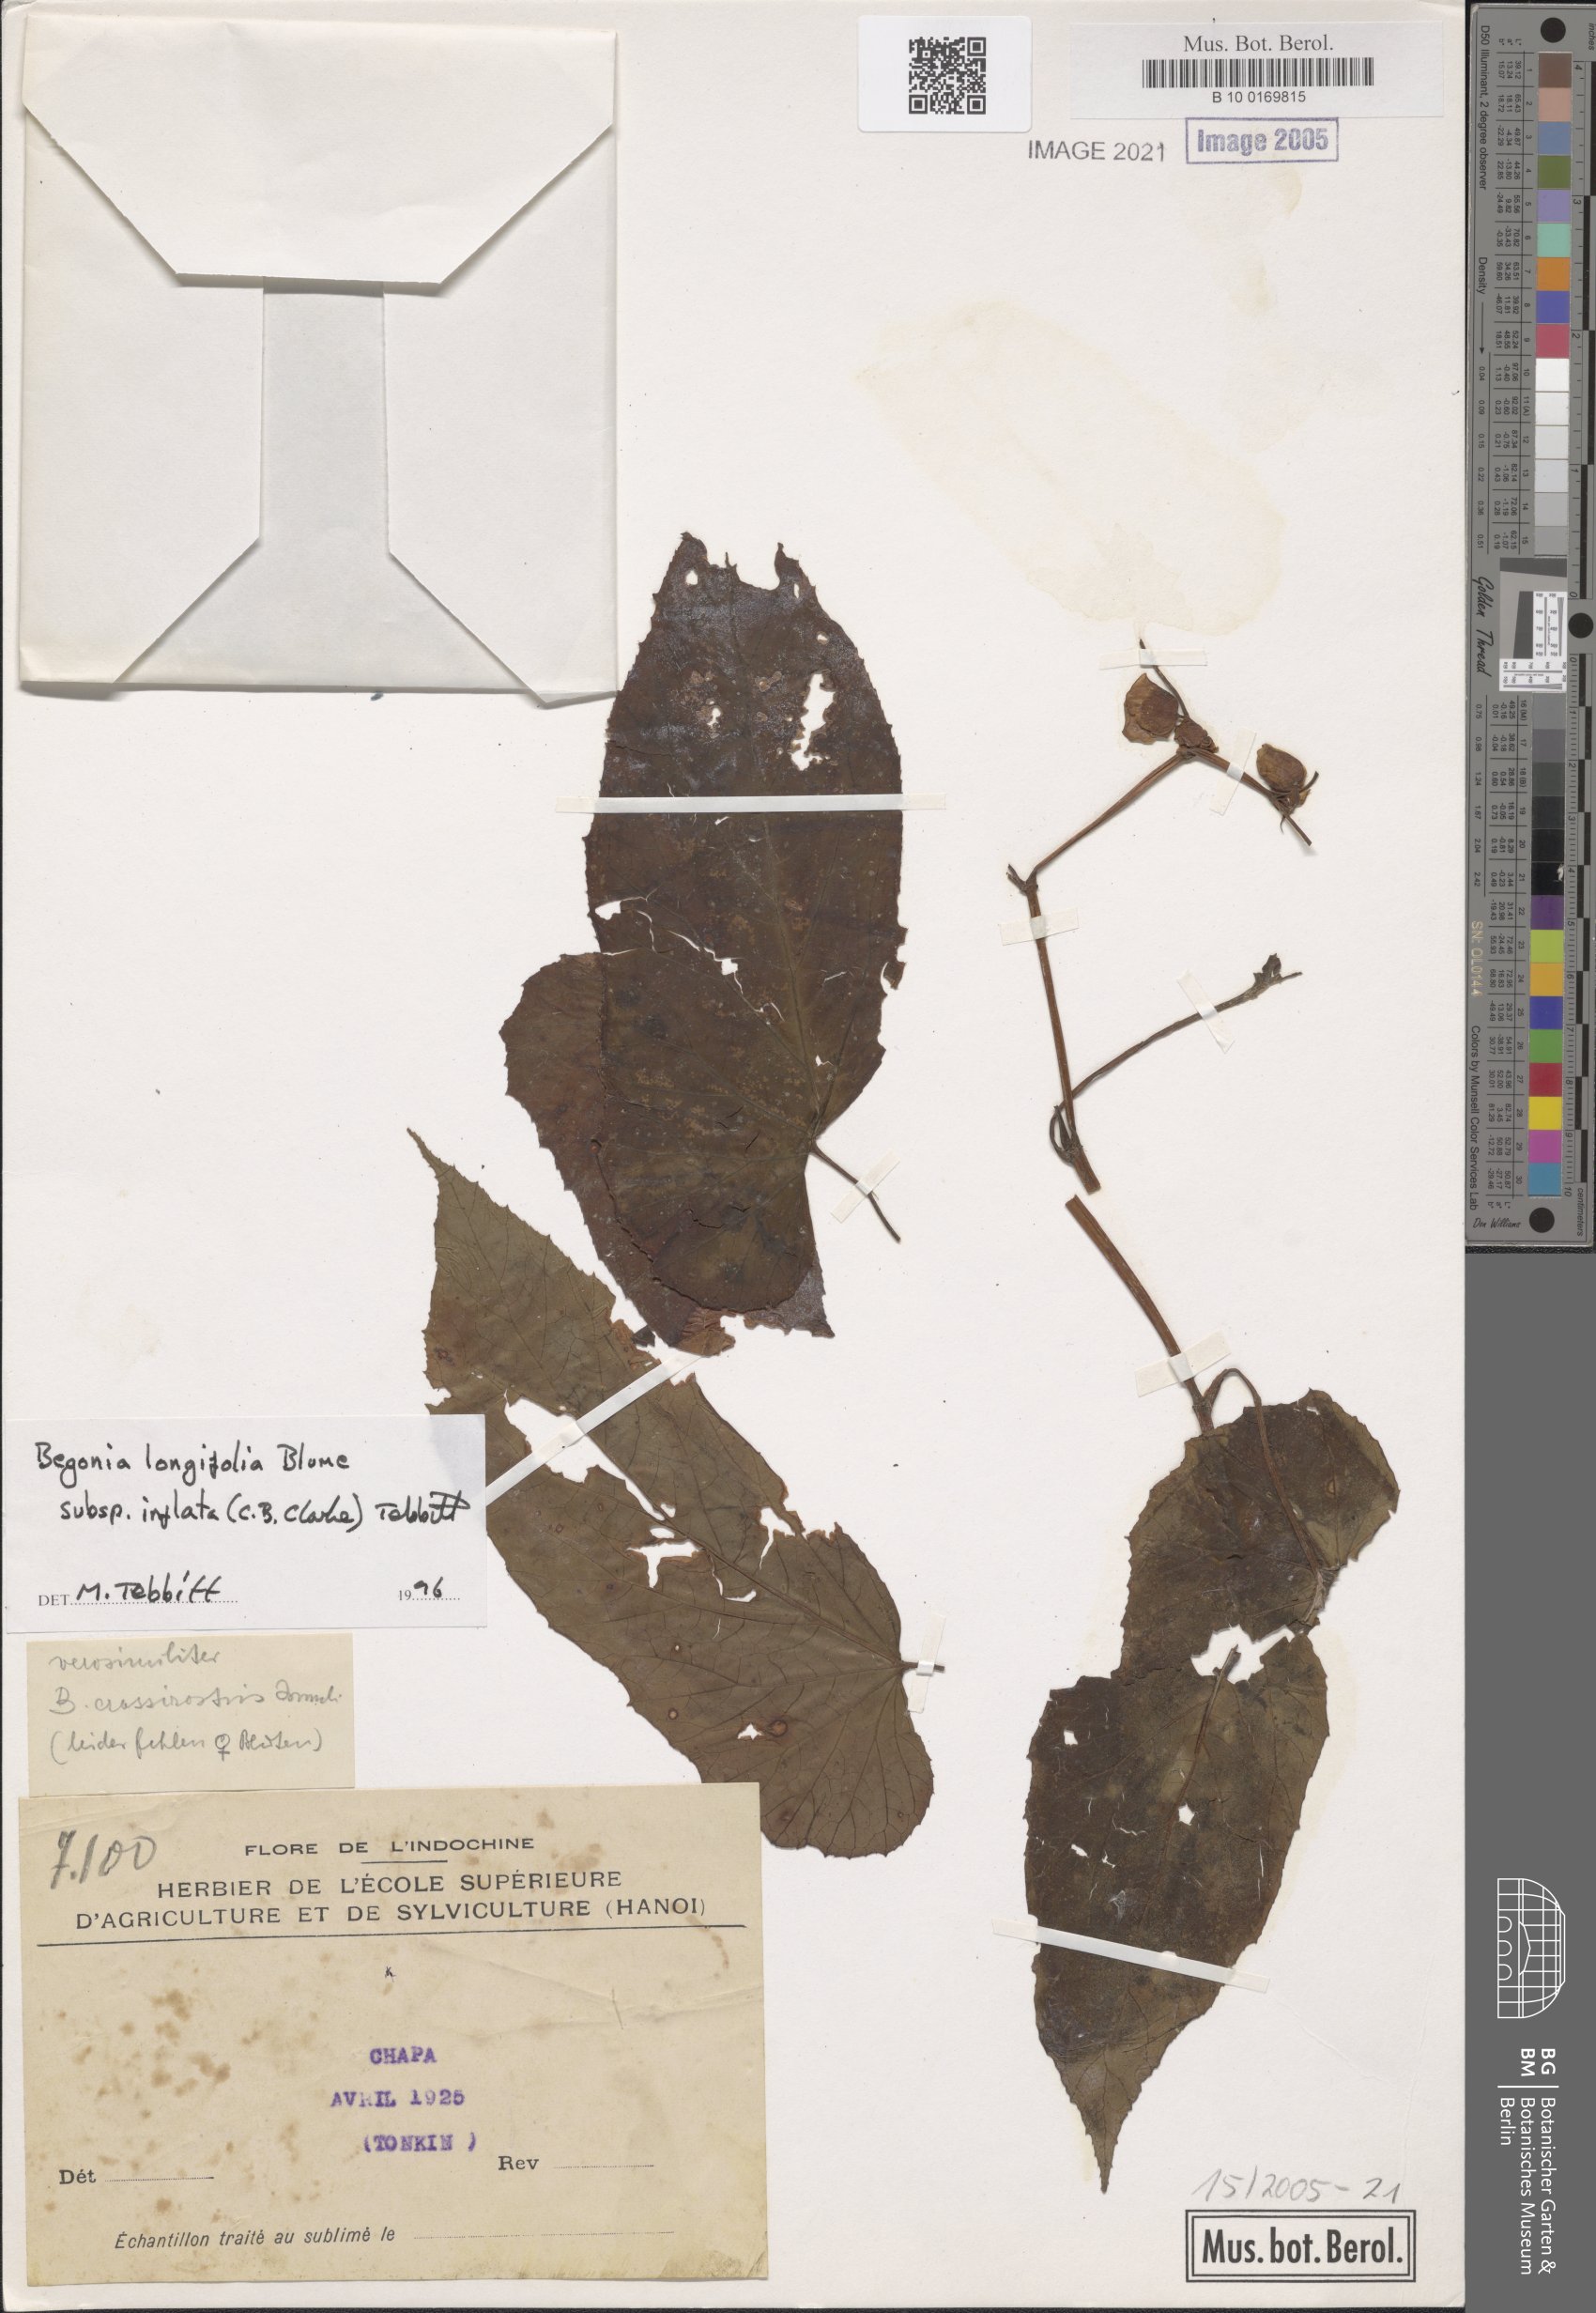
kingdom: Plantae
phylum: Tracheophyta
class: Magnoliopsida
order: Cucurbitales
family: Begoniaceae
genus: Begonia
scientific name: Begonia longifolia
